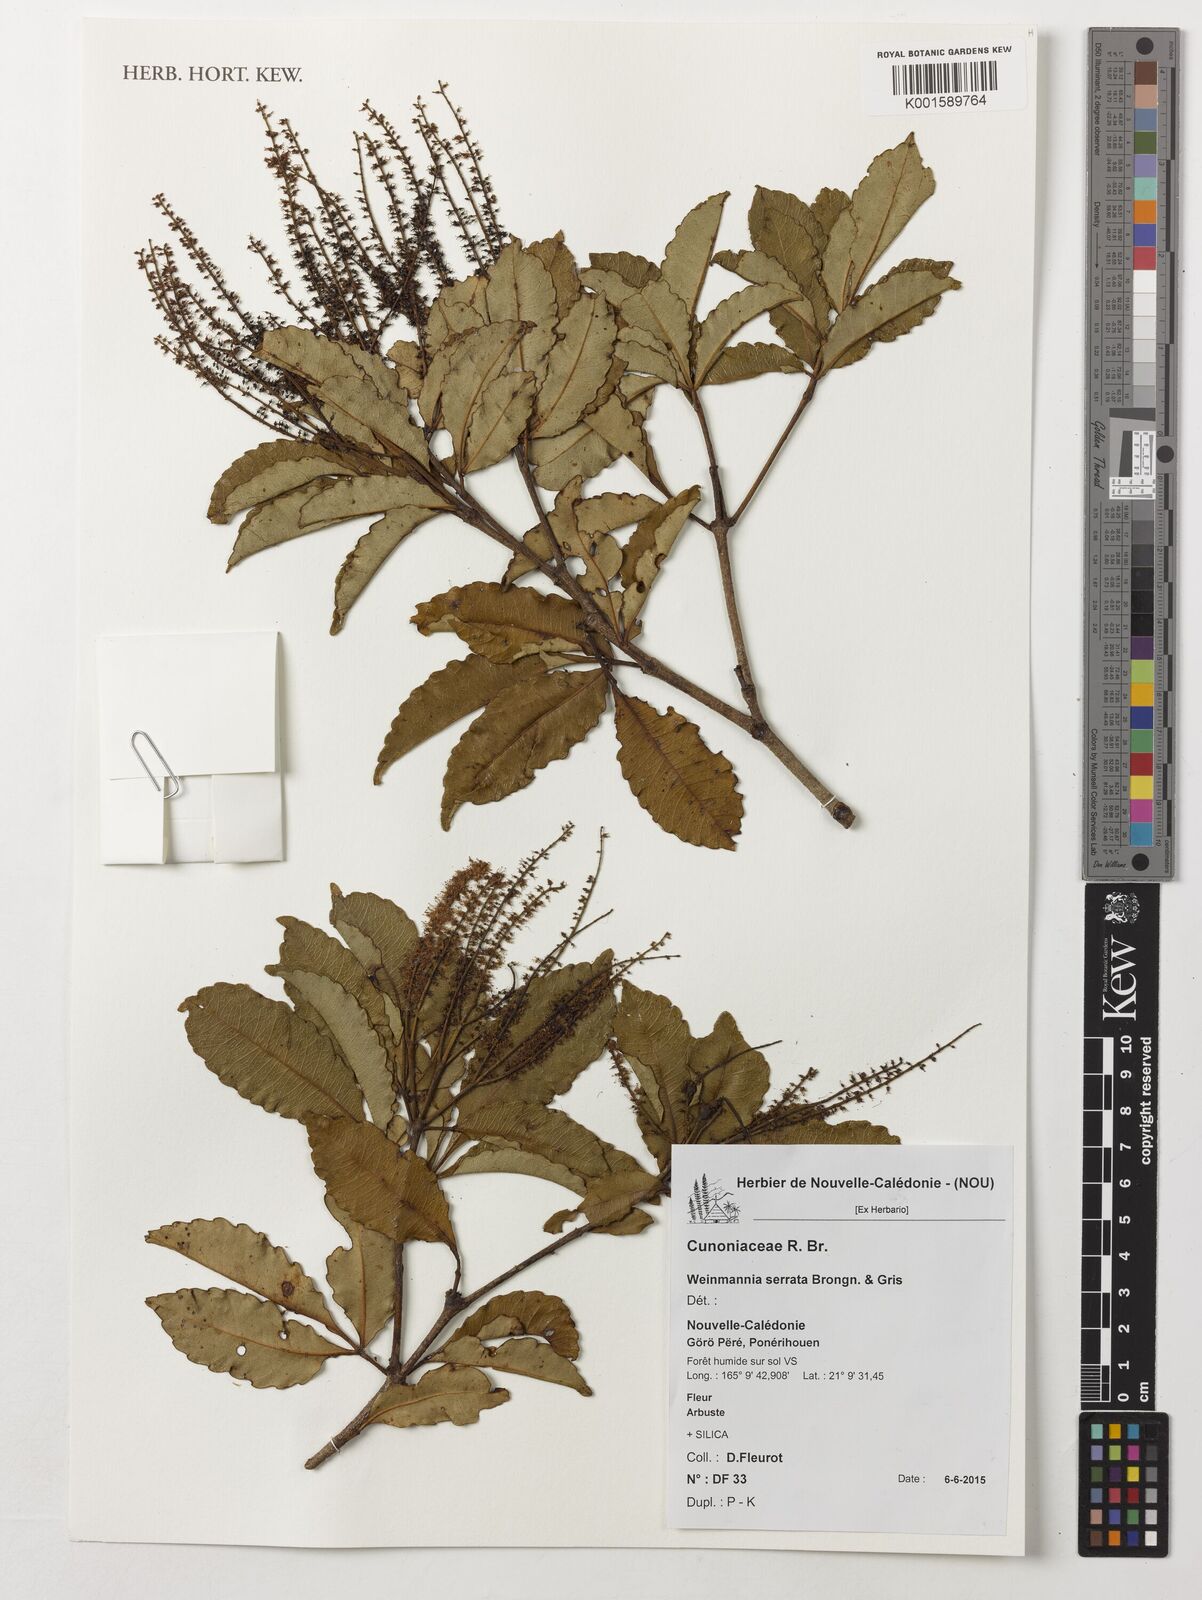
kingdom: Plantae
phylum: Tracheophyta
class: Magnoliopsida
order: Oxalidales
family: Cunoniaceae
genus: Pterophylla
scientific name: Pterophylla serrata
